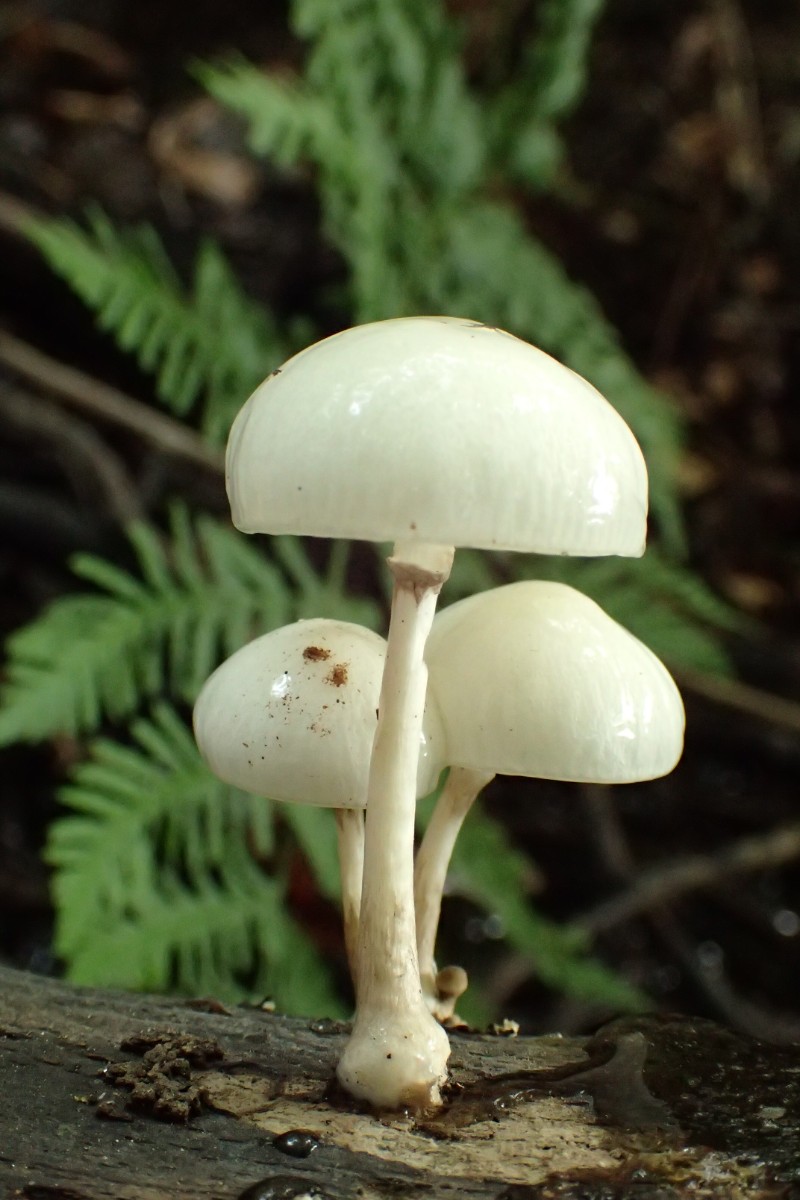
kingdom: Fungi
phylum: Basidiomycota
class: Agaricomycetes
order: Agaricales
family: Physalacriaceae
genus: Mucidula
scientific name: Mucidula mucida
